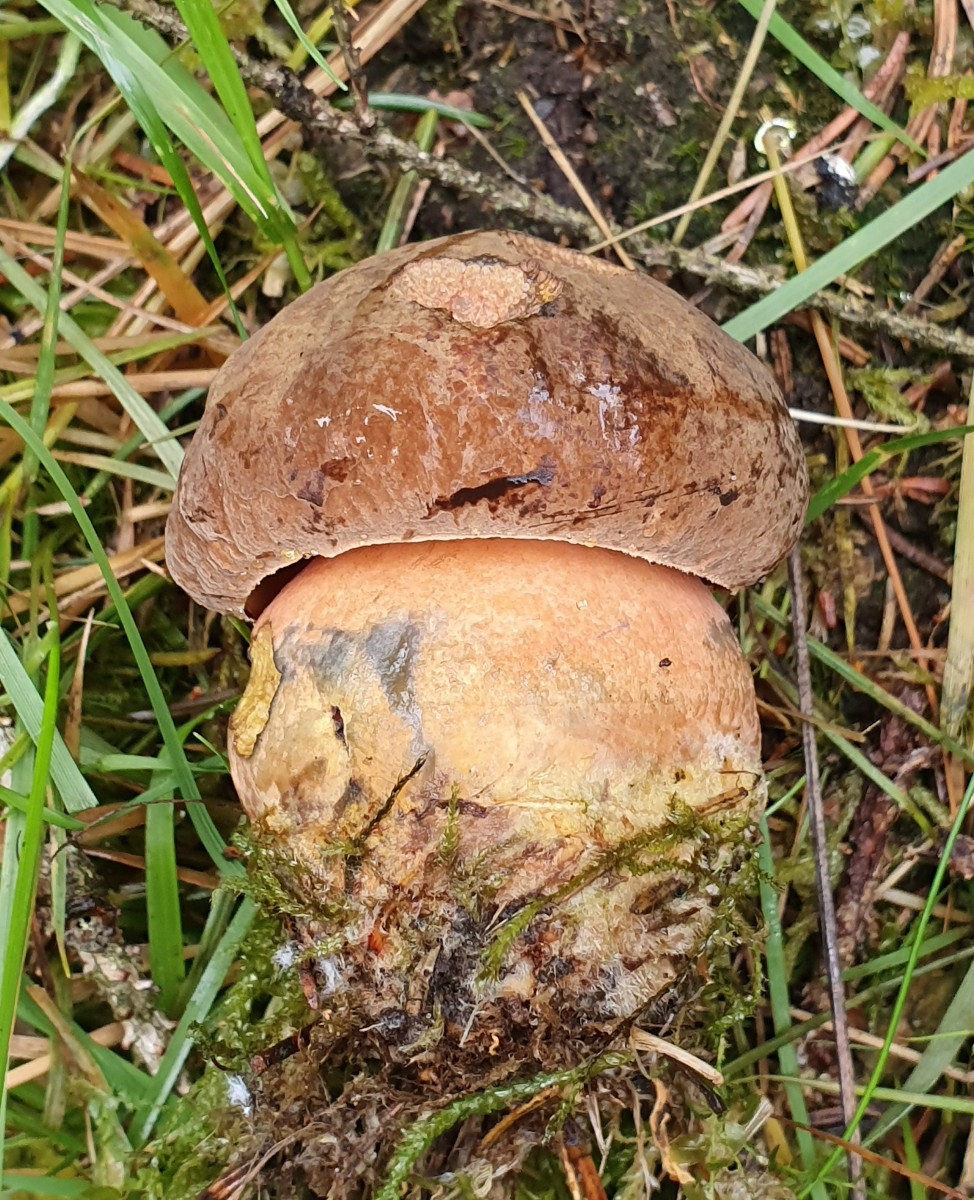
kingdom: Fungi
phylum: Basidiomycota
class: Agaricomycetes
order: Boletales
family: Boletaceae
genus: Neoboletus
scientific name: Neoboletus erythropus
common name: punktstokket indigorørhat
